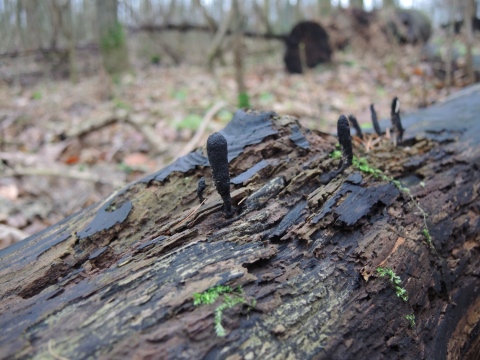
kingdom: Fungi
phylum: Ascomycota
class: Sordariomycetes
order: Xylariales
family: Xylariaceae
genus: Xylaria
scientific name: Xylaria longipes
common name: slank stødsvamp
